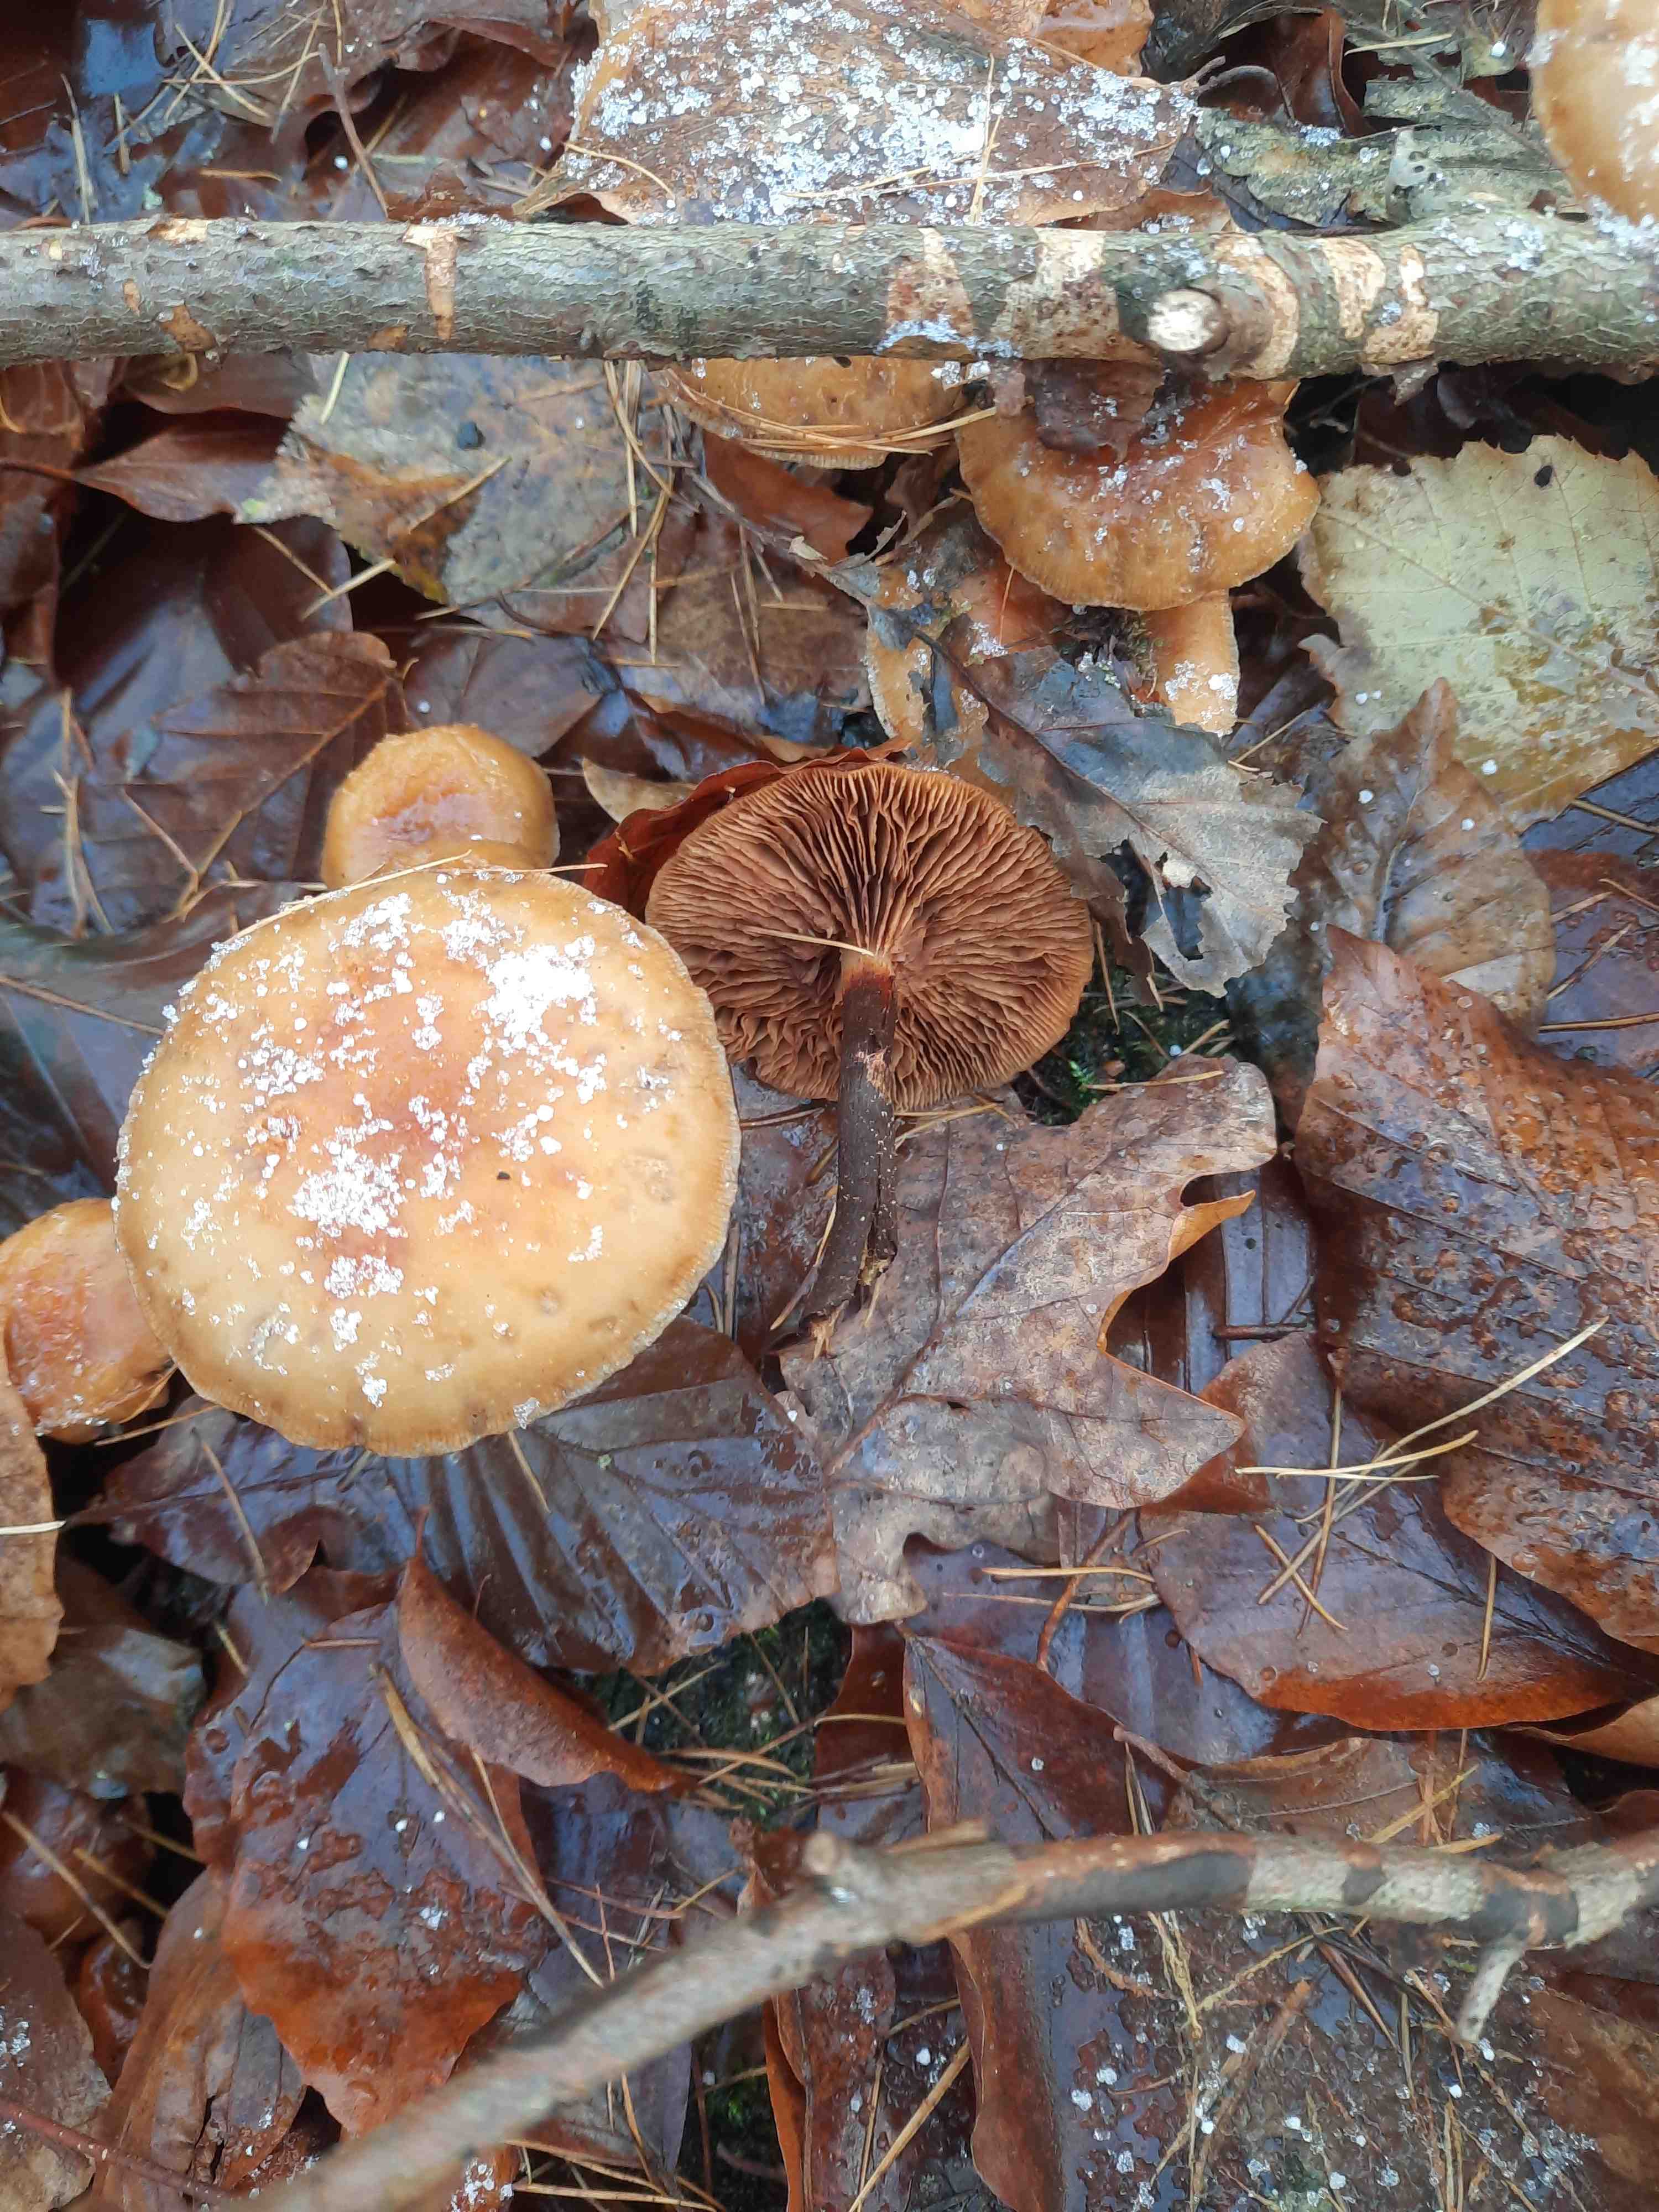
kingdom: Fungi
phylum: Basidiomycota
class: Agaricomycetes
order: Agaricales
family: Strophariaceae
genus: Kuehneromyces
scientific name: Kuehneromyces mutabilis
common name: foranderlig skælhat
